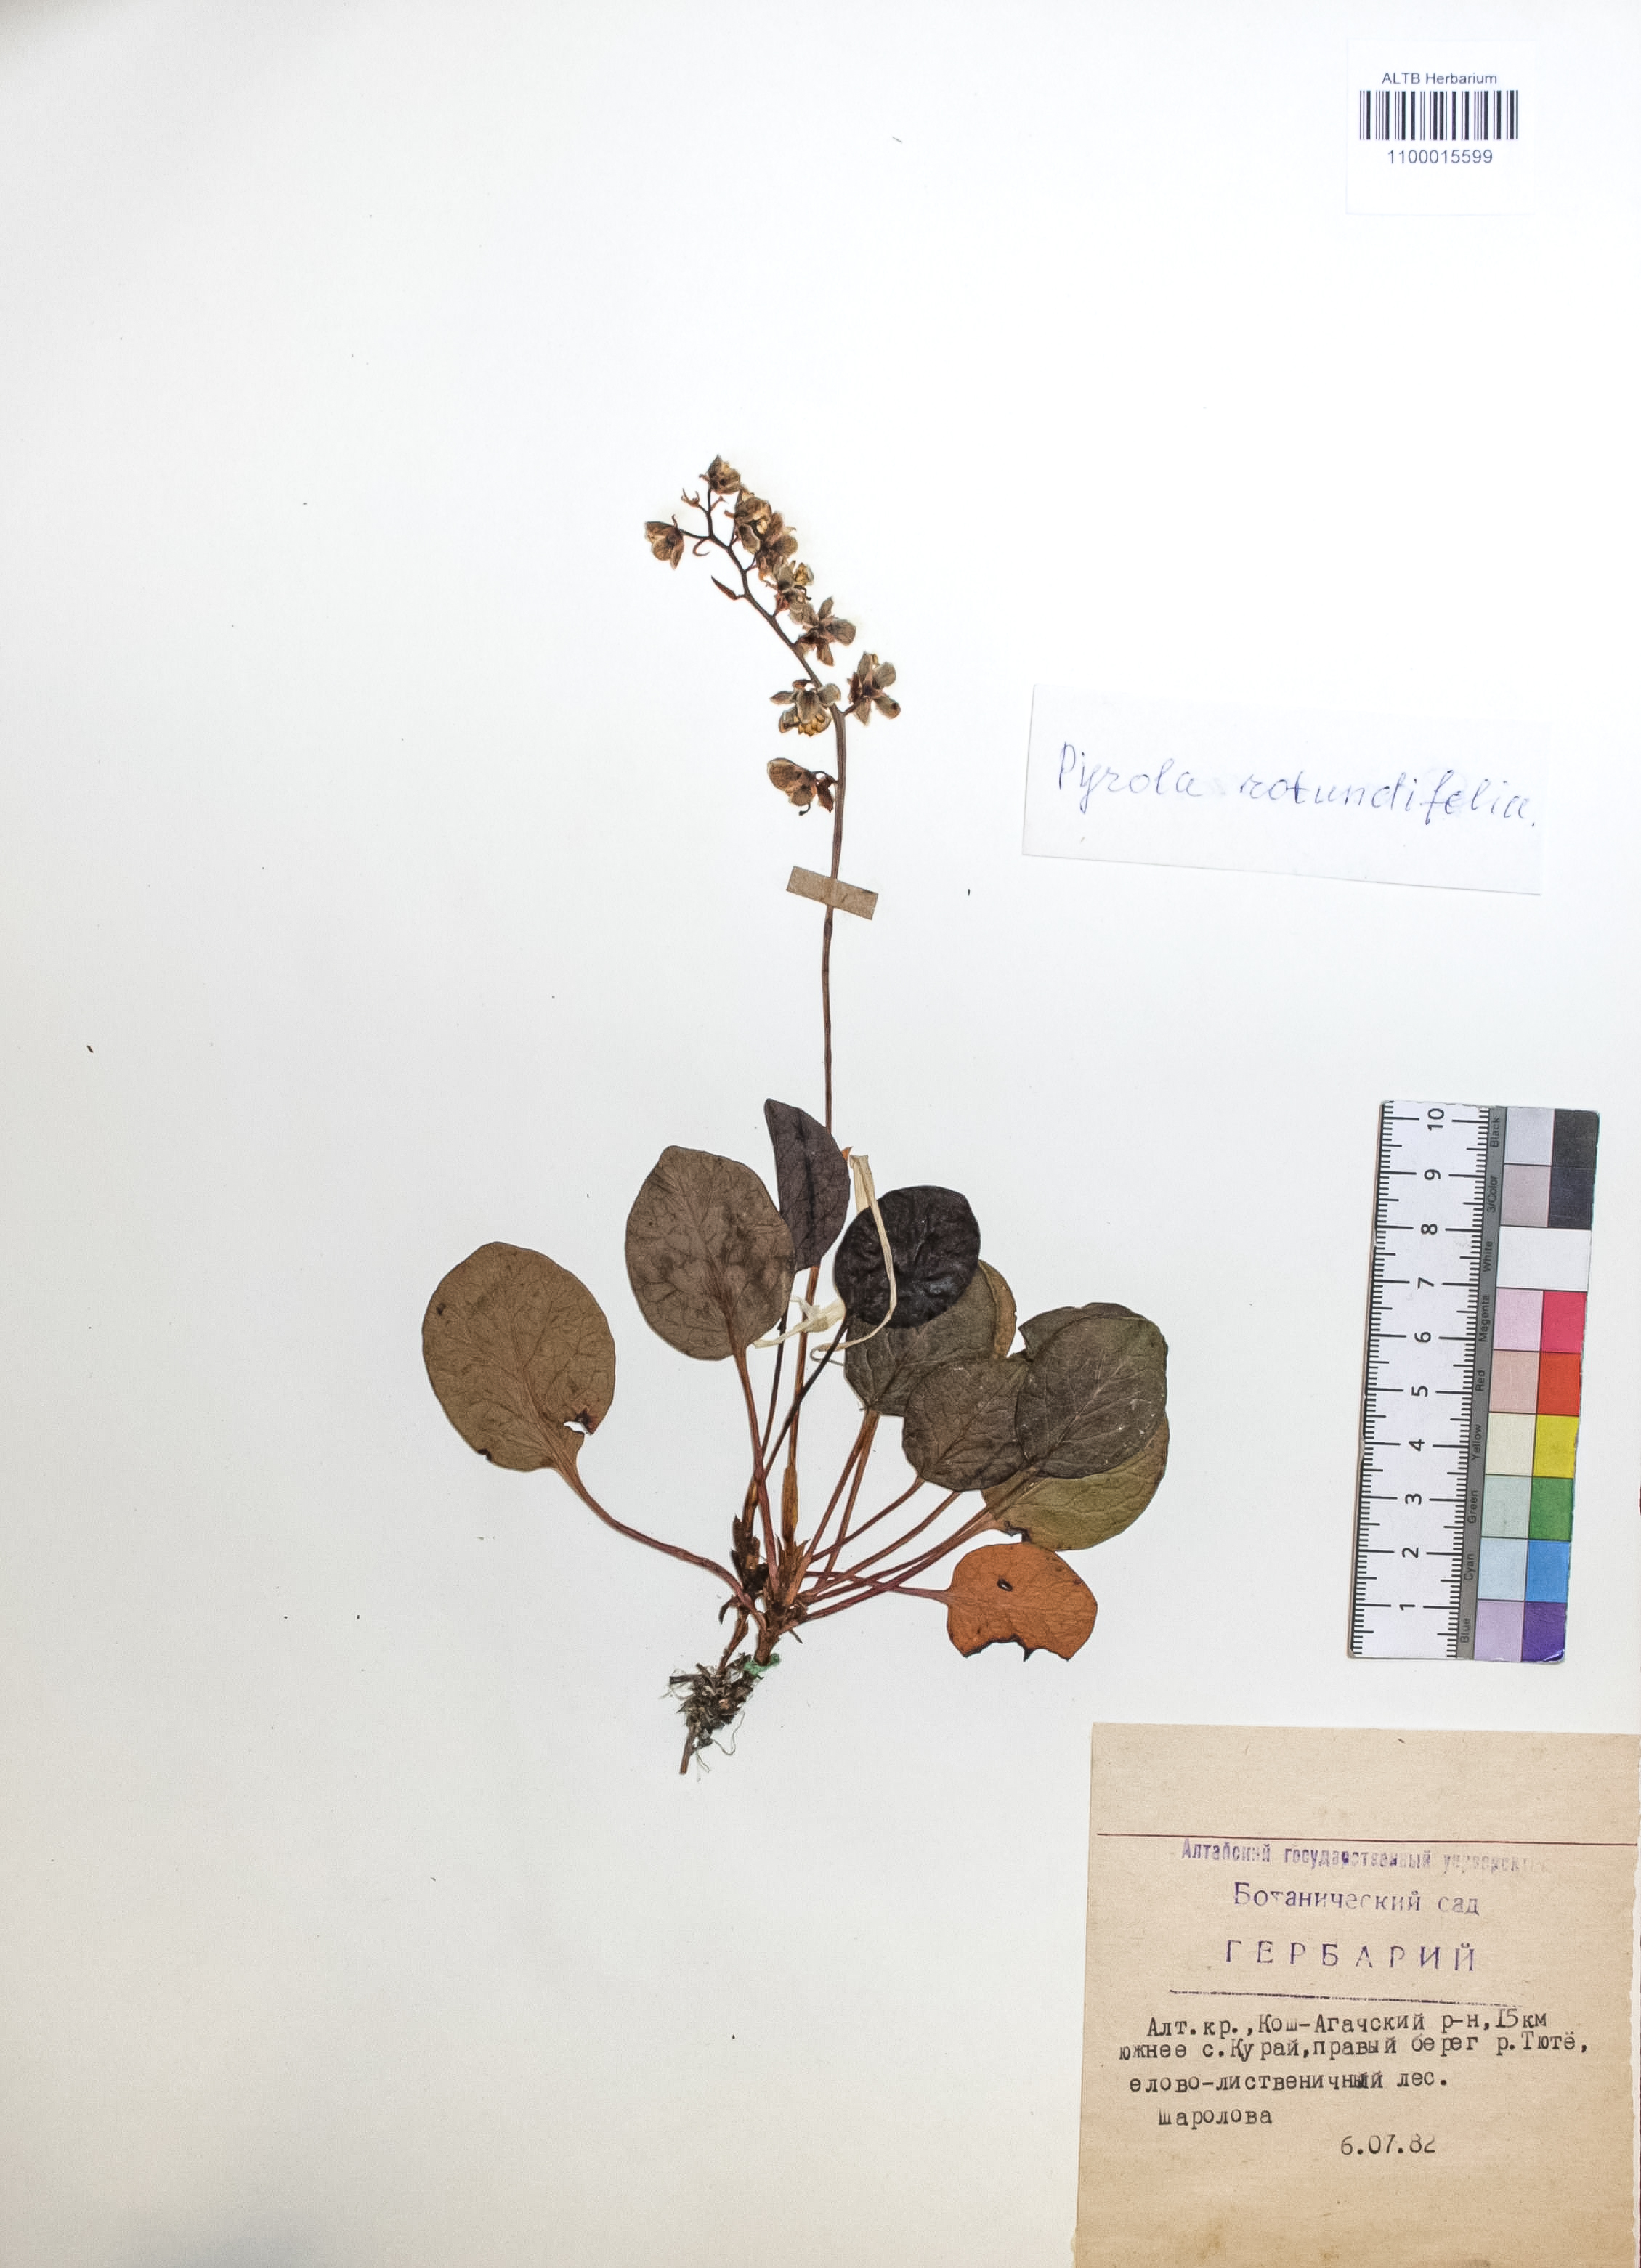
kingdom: Plantae
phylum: Tracheophyta
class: Magnoliopsida
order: Ericales
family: Ericaceae
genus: Pyrola
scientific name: Pyrola rotundifolia
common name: Round-leaved wintergreen
